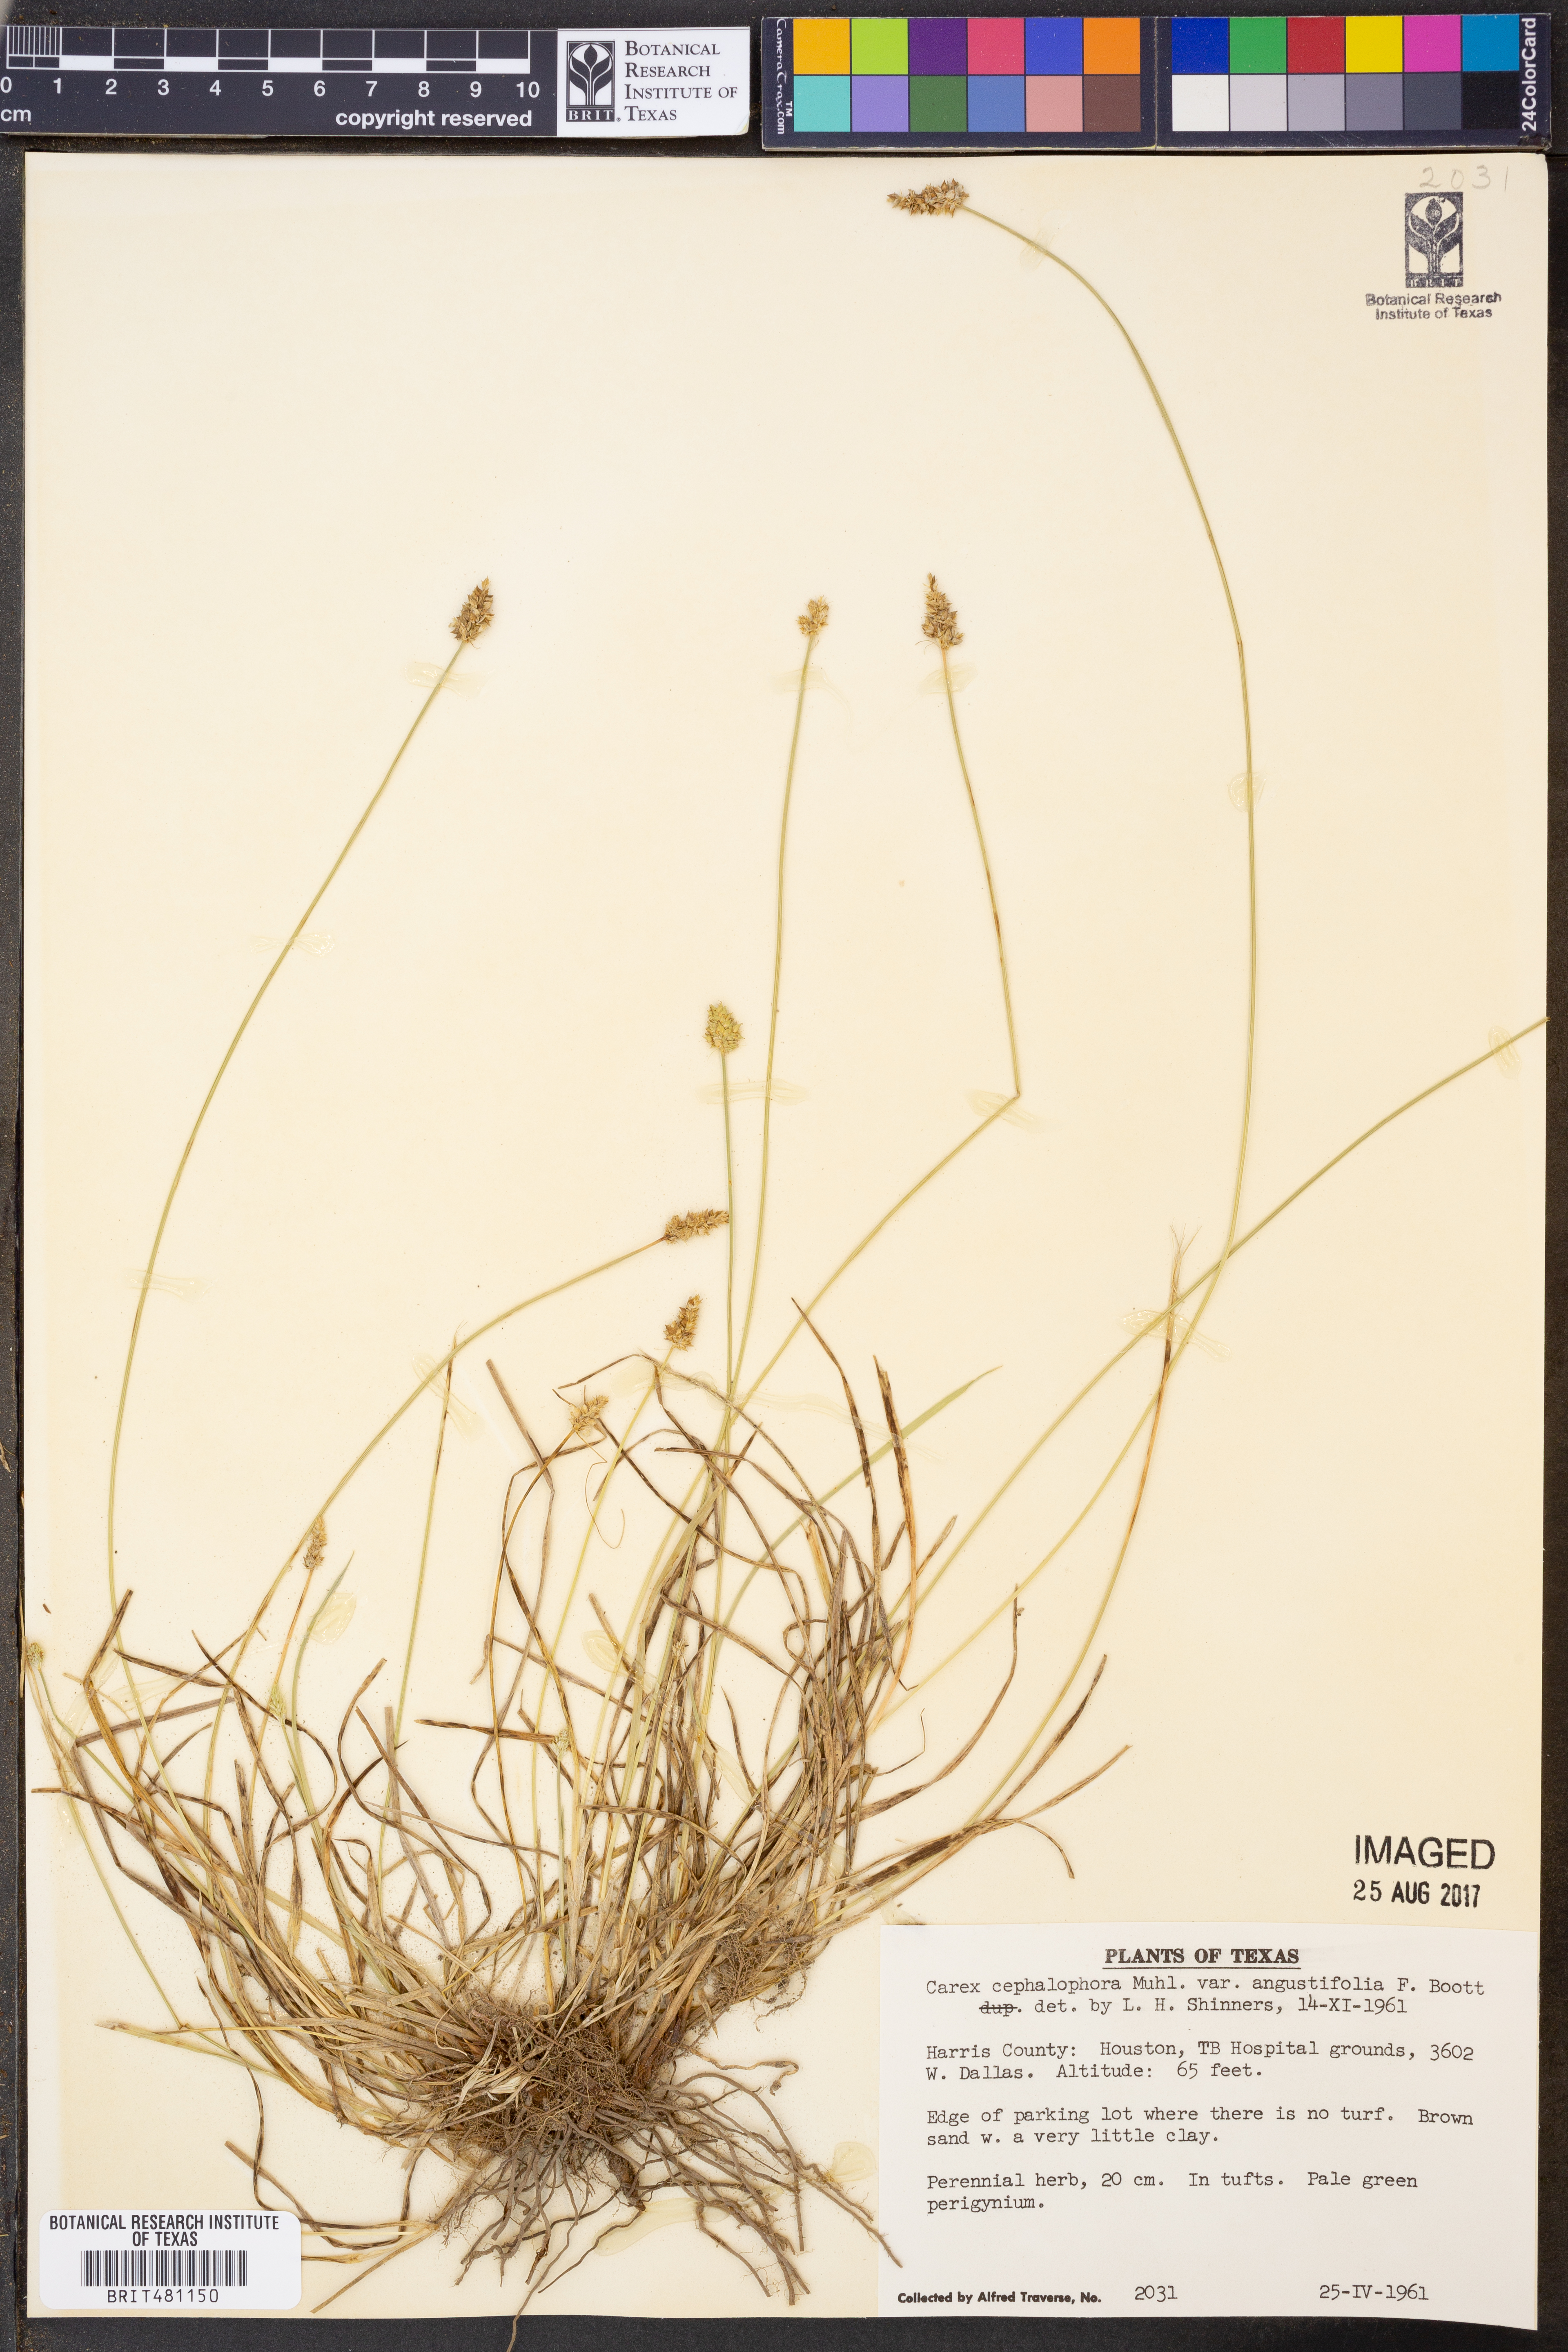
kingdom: Plantae
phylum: Tracheophyta
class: Liliopsida
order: Poales
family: Cyperaceae
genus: Carex
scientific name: Carex leavenworthii
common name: Leavenworth's bracted sedge
